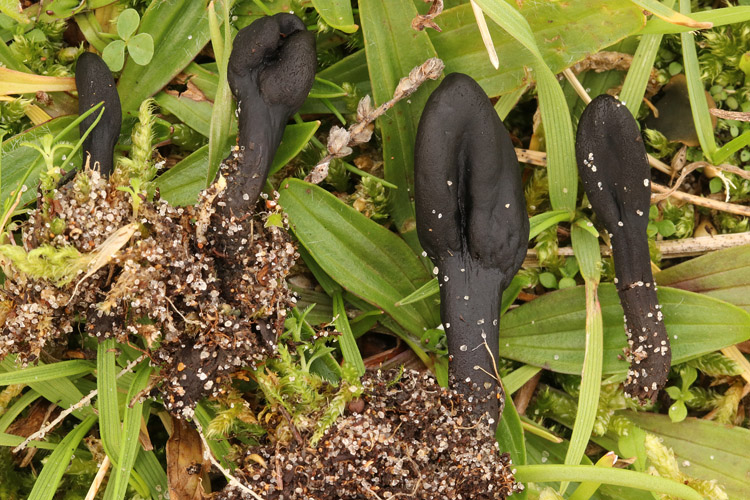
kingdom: Fungi
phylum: Ascomycota
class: Geoglossomycetes
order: Geoglossales
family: Geoglossaceae
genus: Geoglossum
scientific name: Geoglossum fallax
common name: småskællet jordtunge
